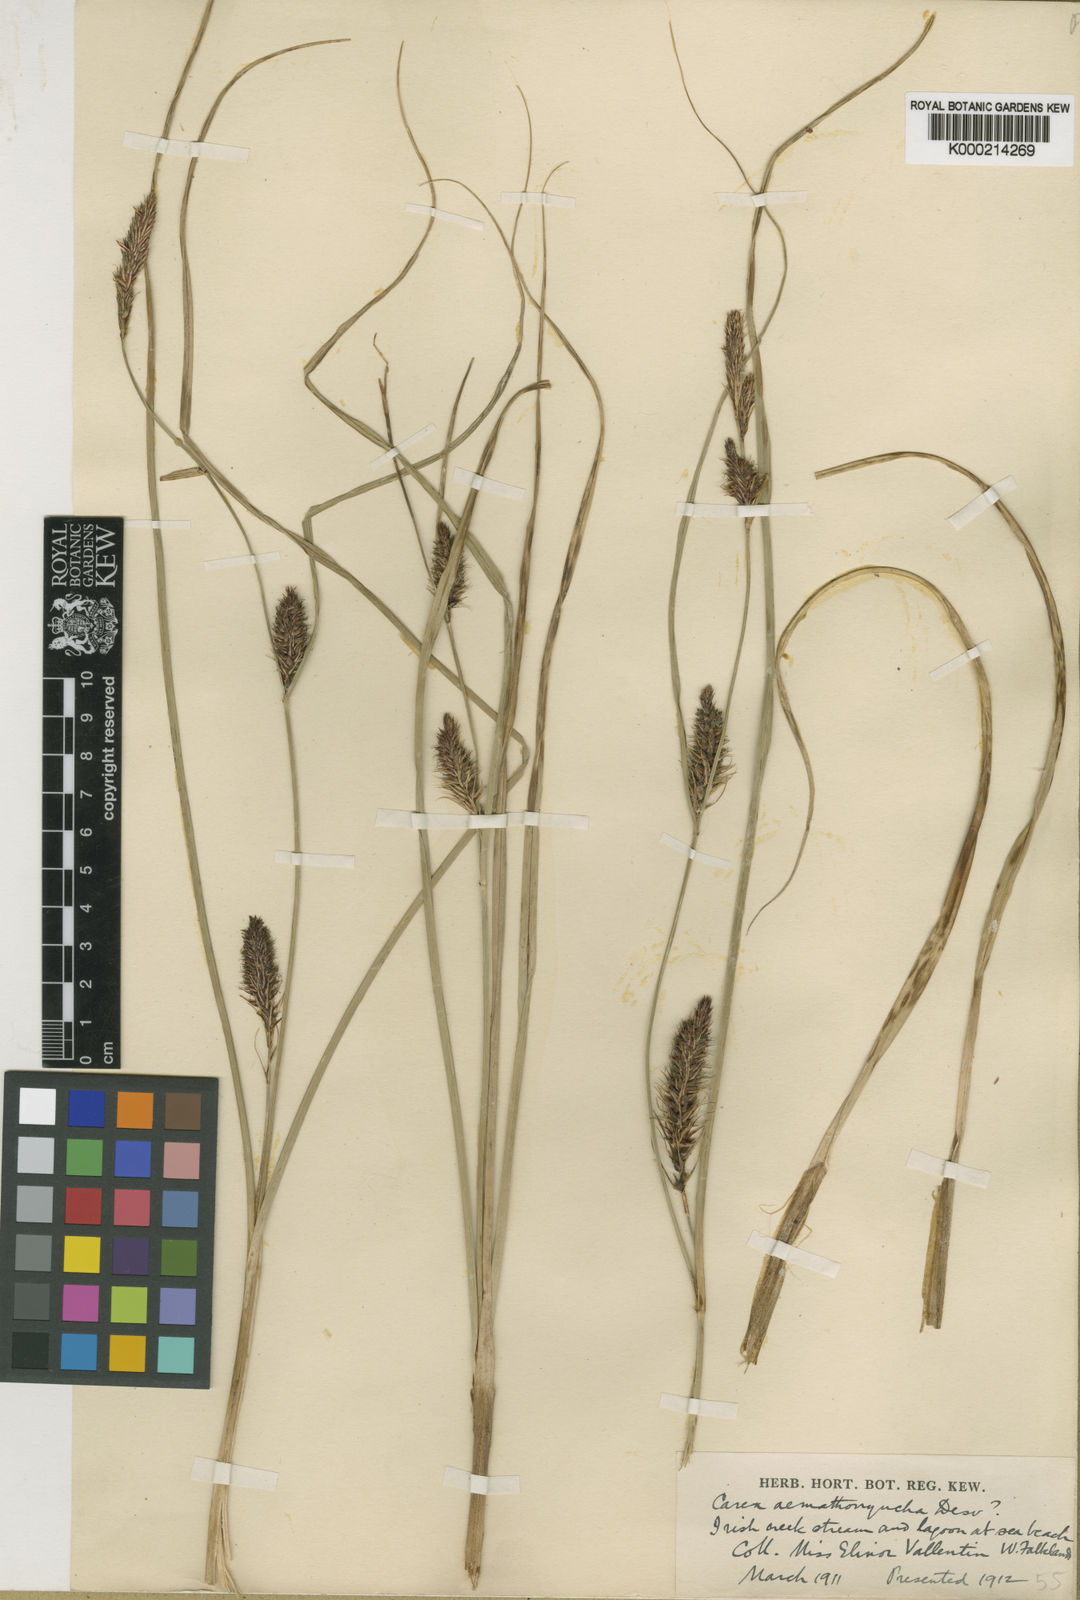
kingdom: Plantae
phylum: Tracheophyta
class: Liliopsida
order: Poales
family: Cyperaceae
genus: Carex
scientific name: Carex aematorhyncha
